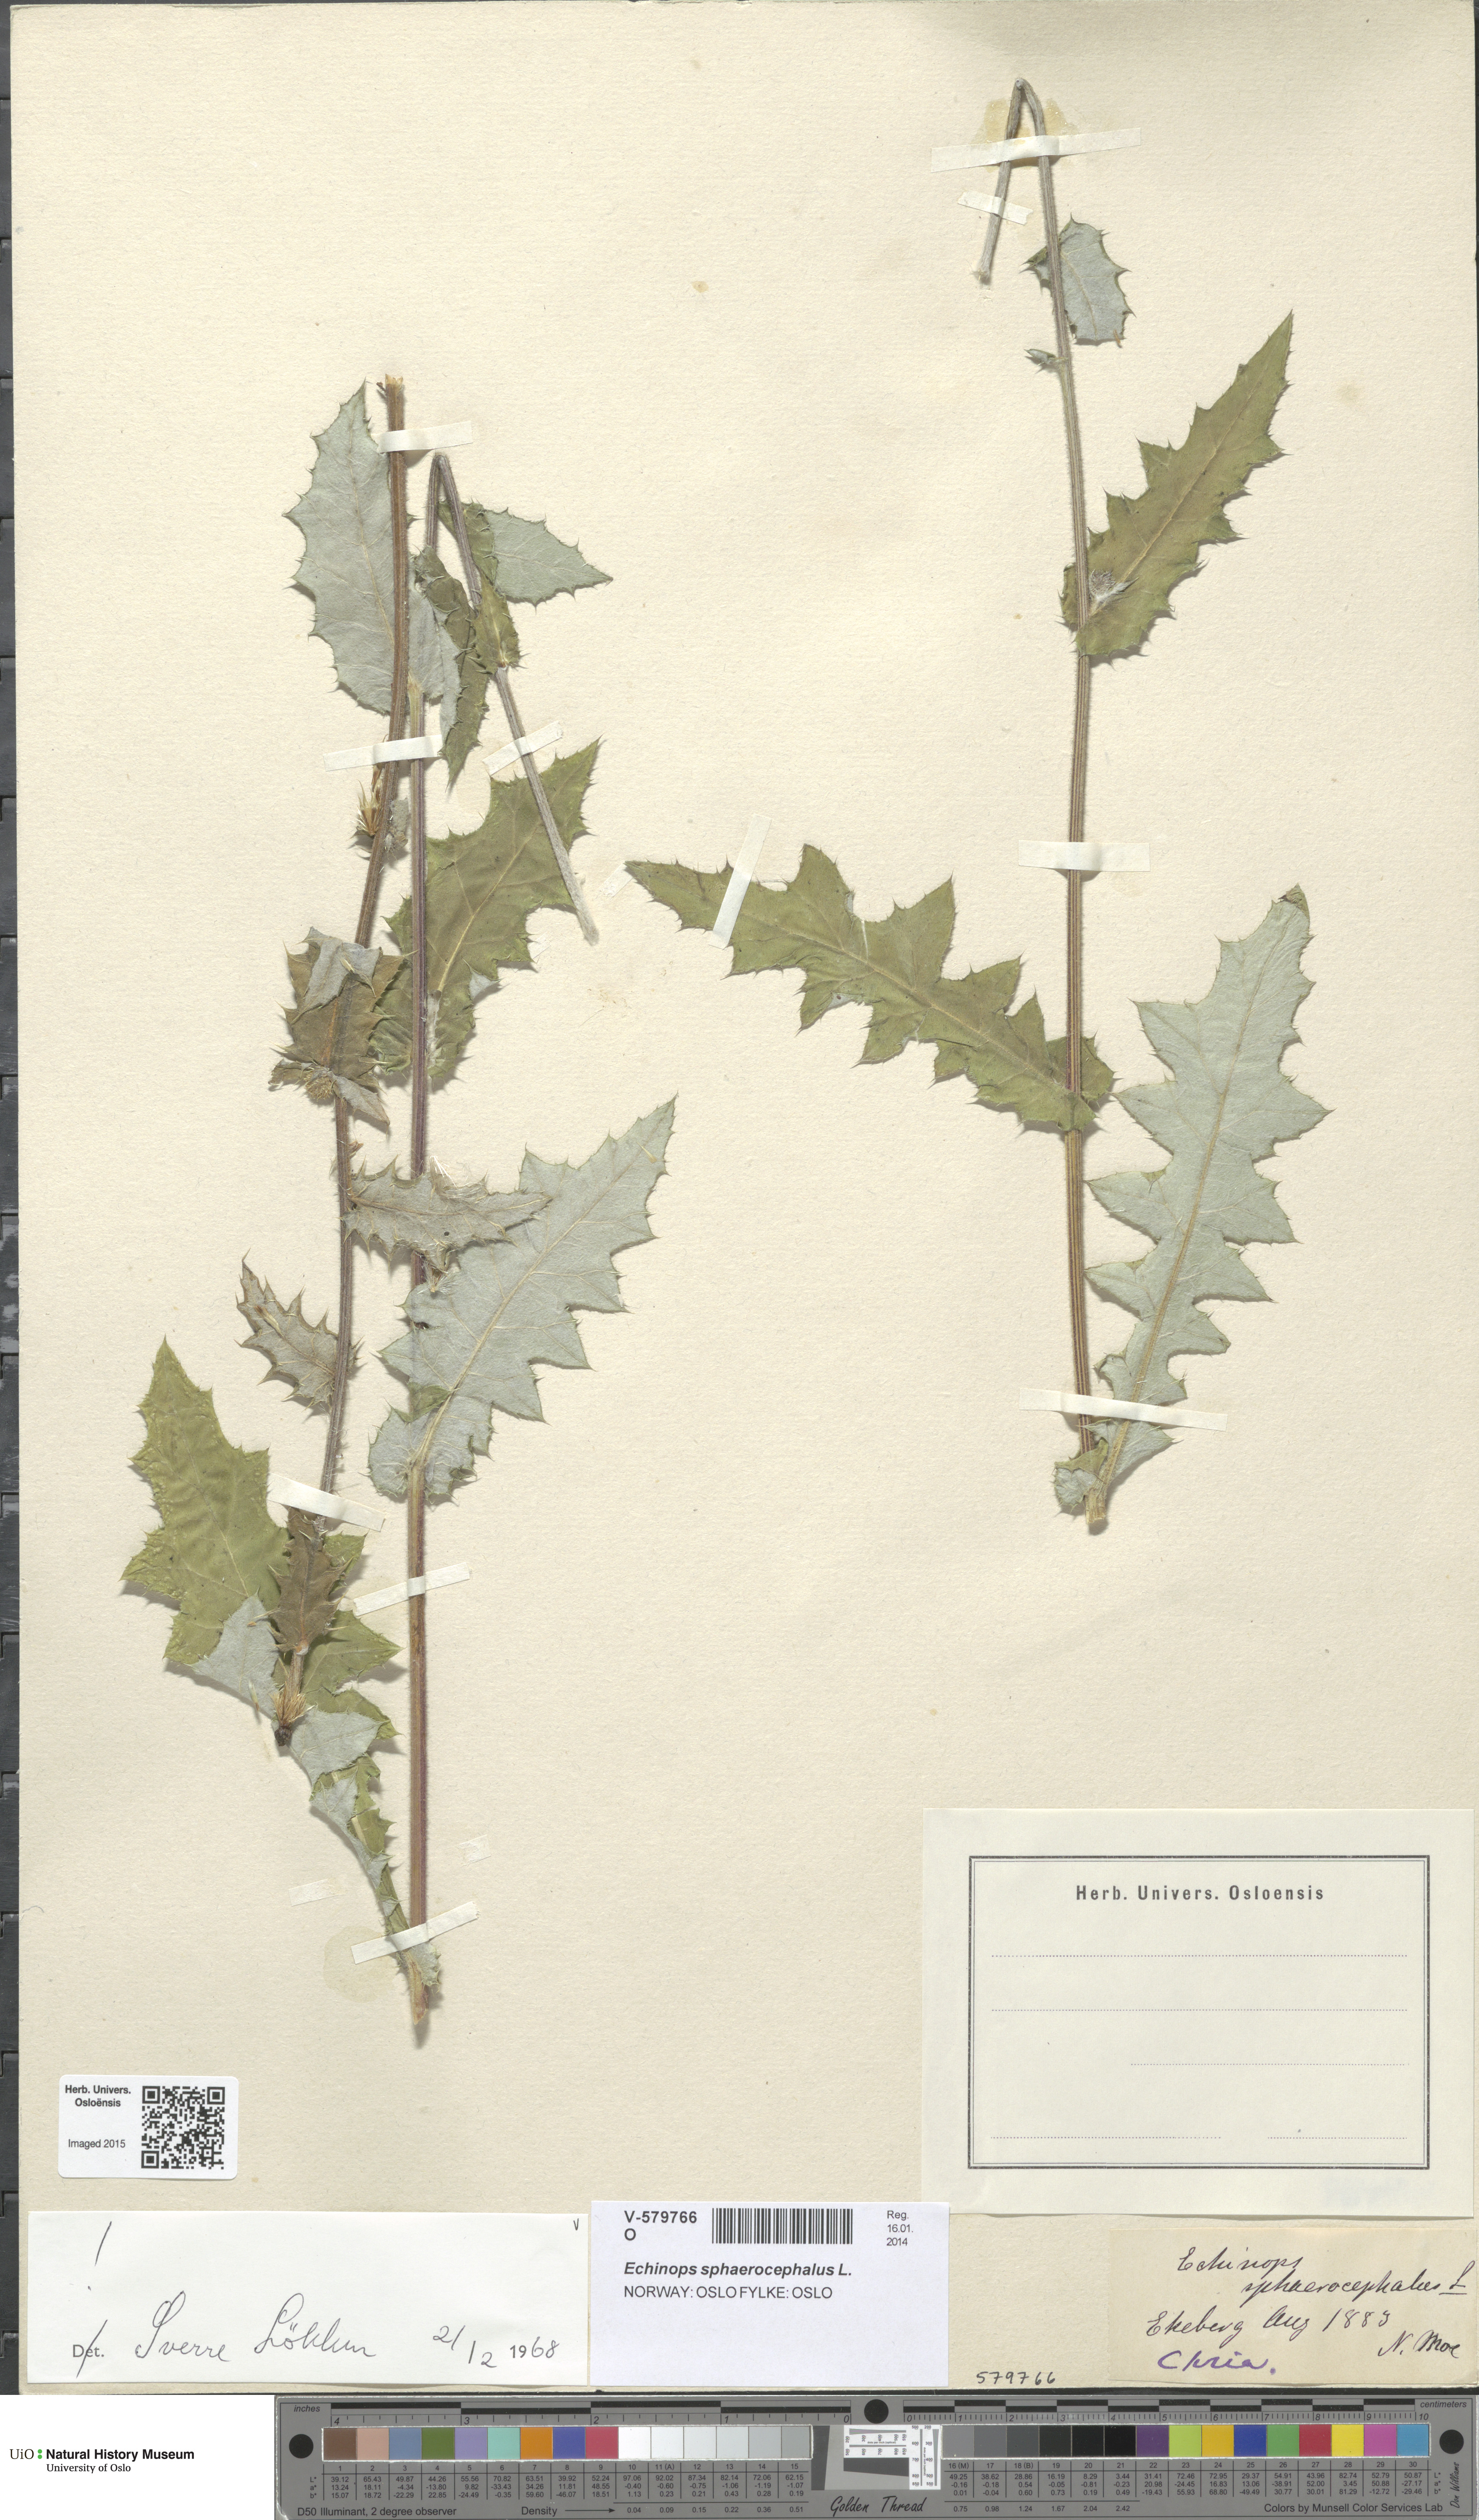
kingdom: Plantae
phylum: Tracheophyta
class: Magnoliopsida
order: Asterales
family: Asteraceae
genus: Echinops
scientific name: Echinops sphaerocephalus
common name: Glandular globe-thistle
